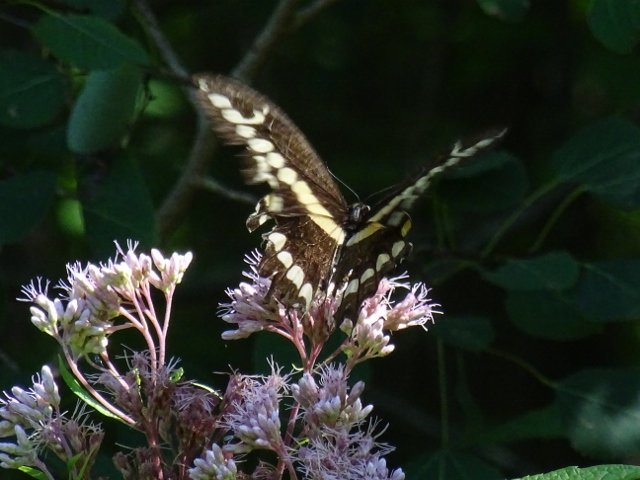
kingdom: Animalia
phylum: Arthropoda
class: Insecta
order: Lepidoptera
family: Papilionidae
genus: Papilio
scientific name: Papilio cresphontes
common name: Eastern Giant Swallowtail
